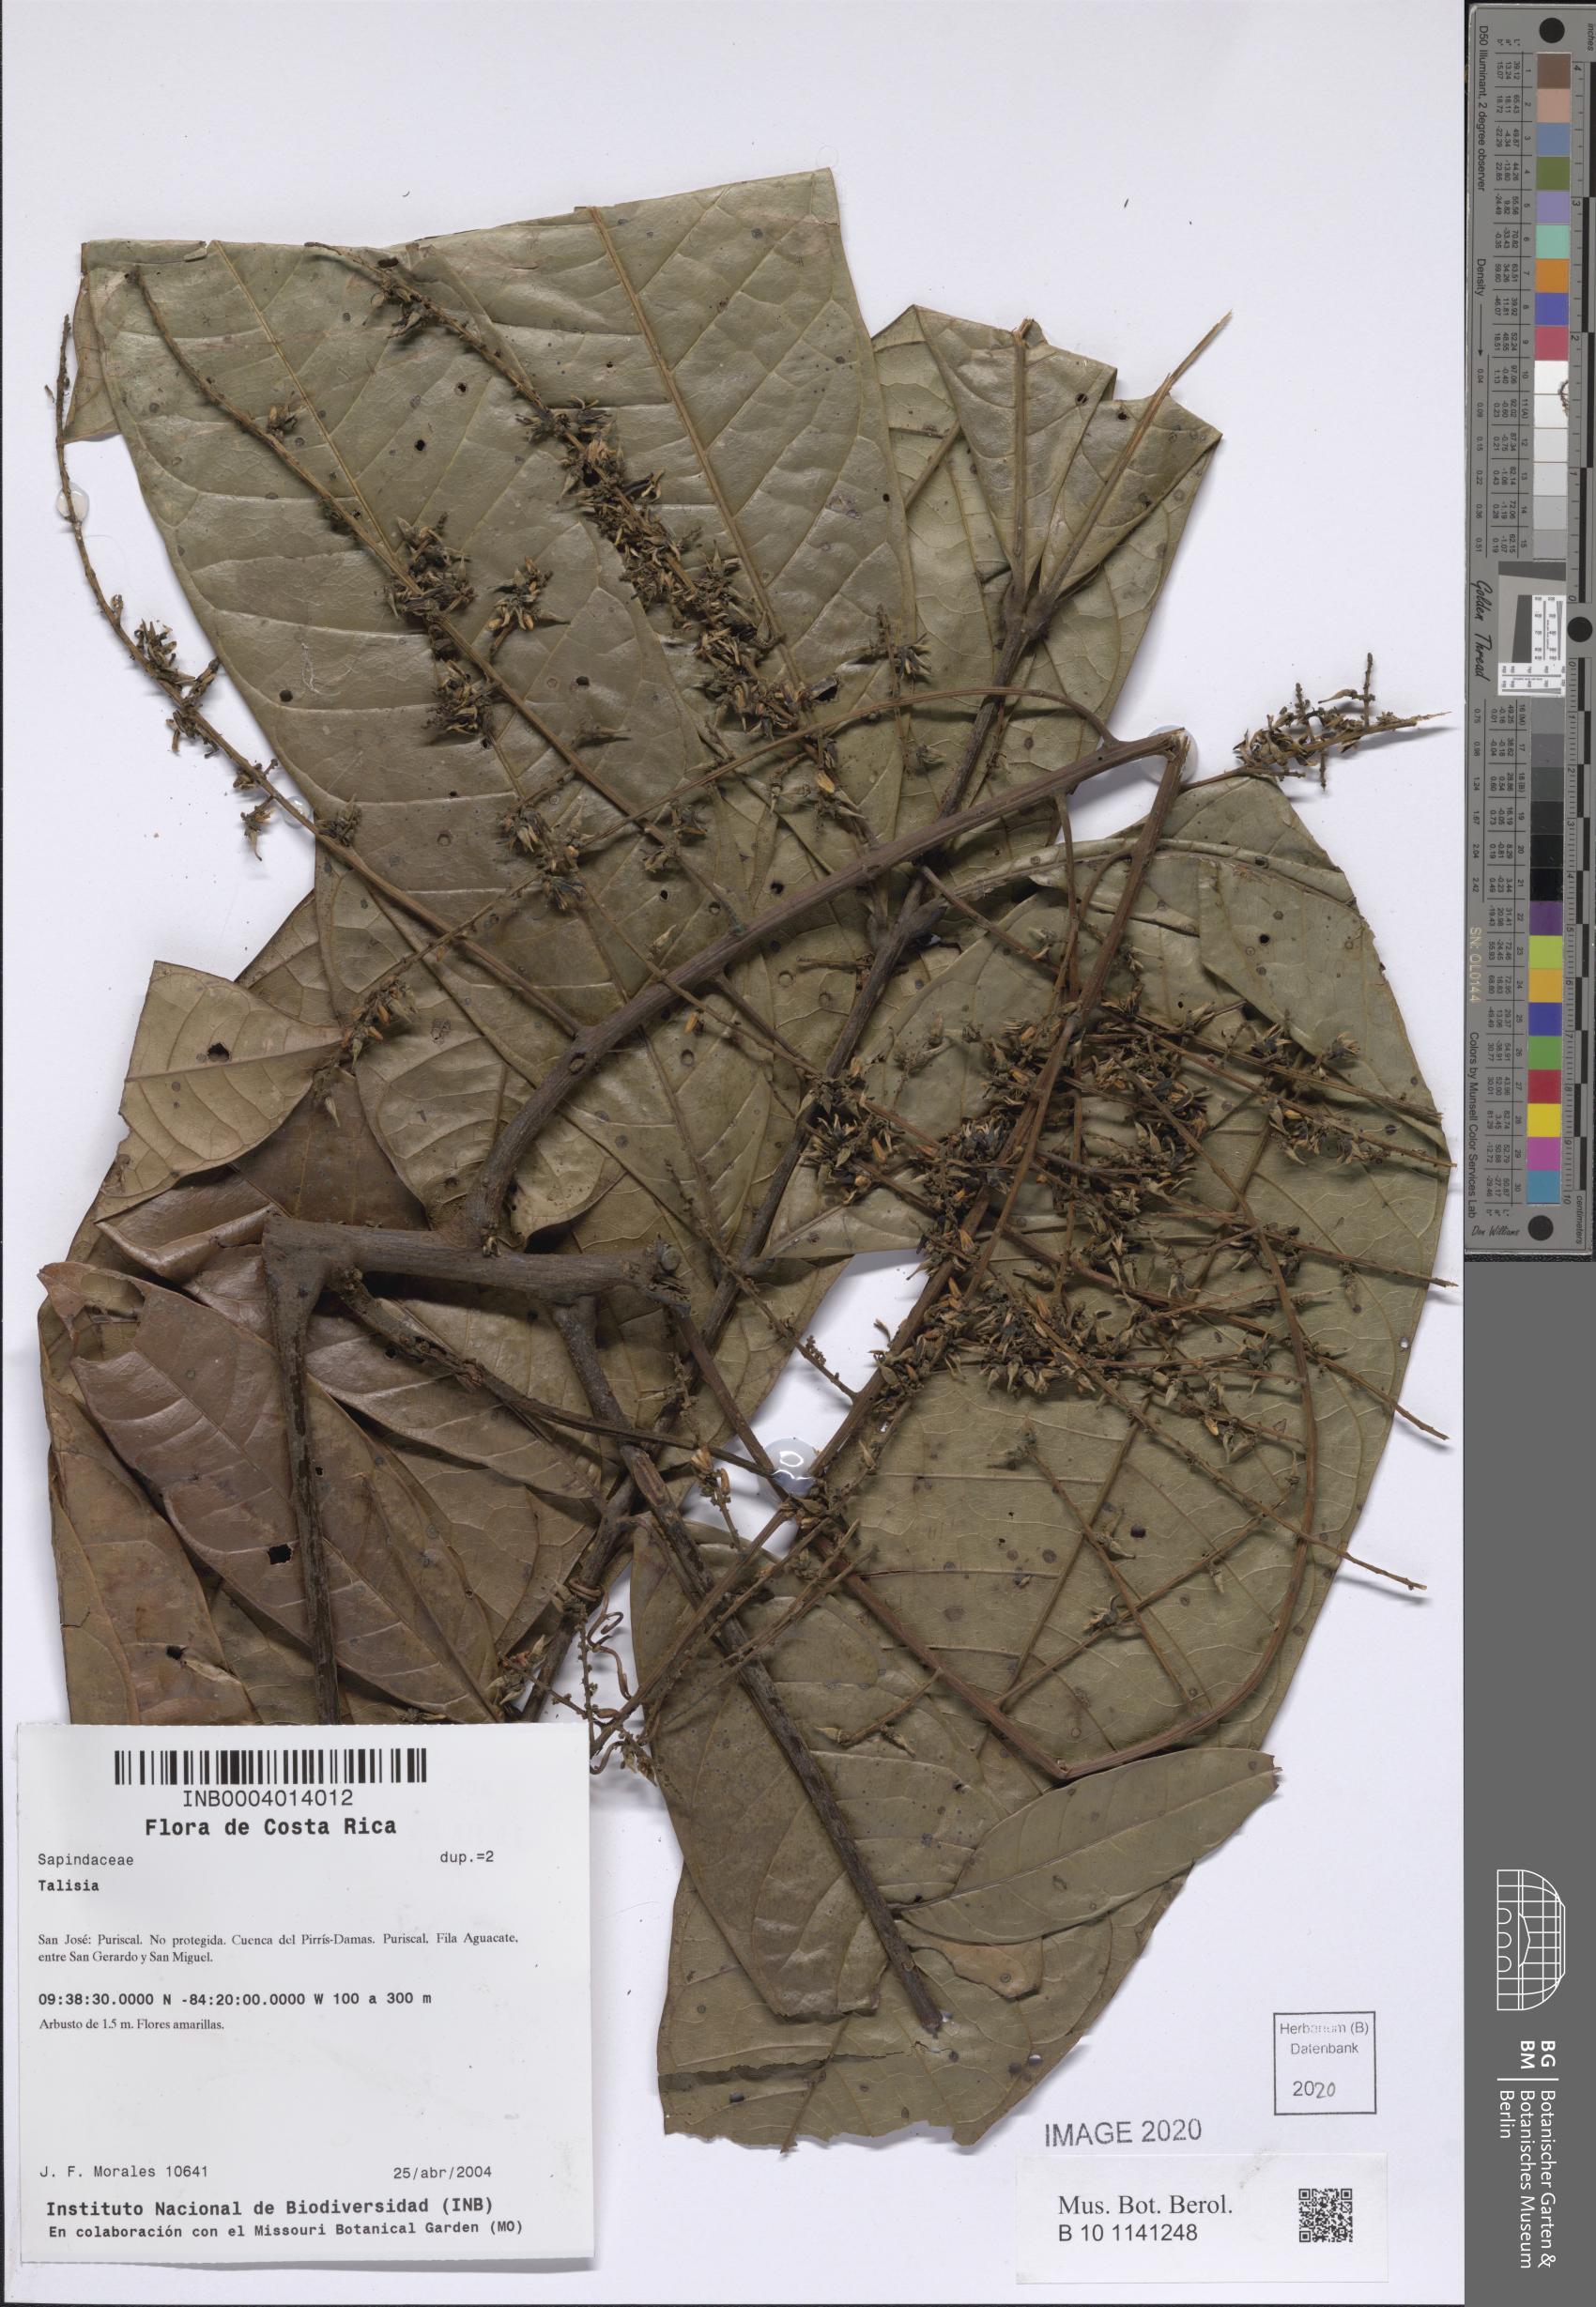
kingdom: Plantae
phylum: Tracheophyta
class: Magnoliopsida
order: Sapindales
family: Sapindaceae
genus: Talisia
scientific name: Talisia
